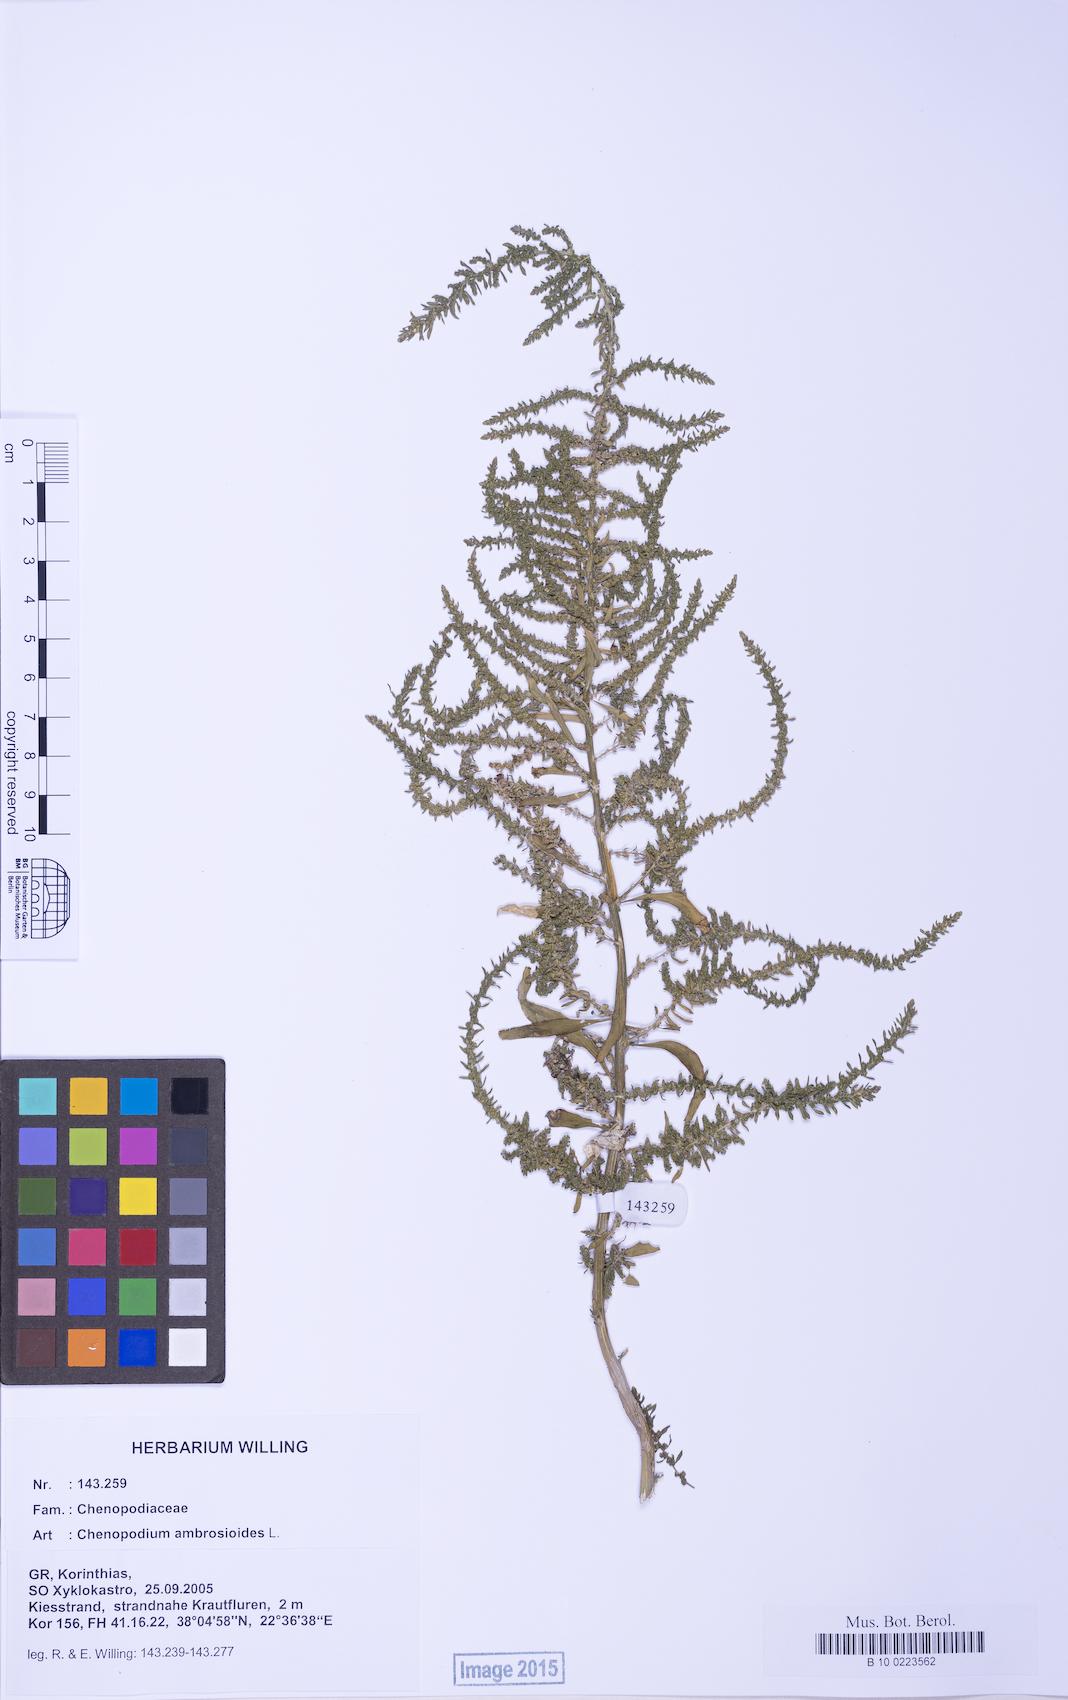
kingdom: Plantae
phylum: Tracheophyta
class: Magnoliopsida
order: Caryophyllales
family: Amaranthaceae
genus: Dysphania
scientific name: Dysphania ambrosioides
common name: Wormseed
